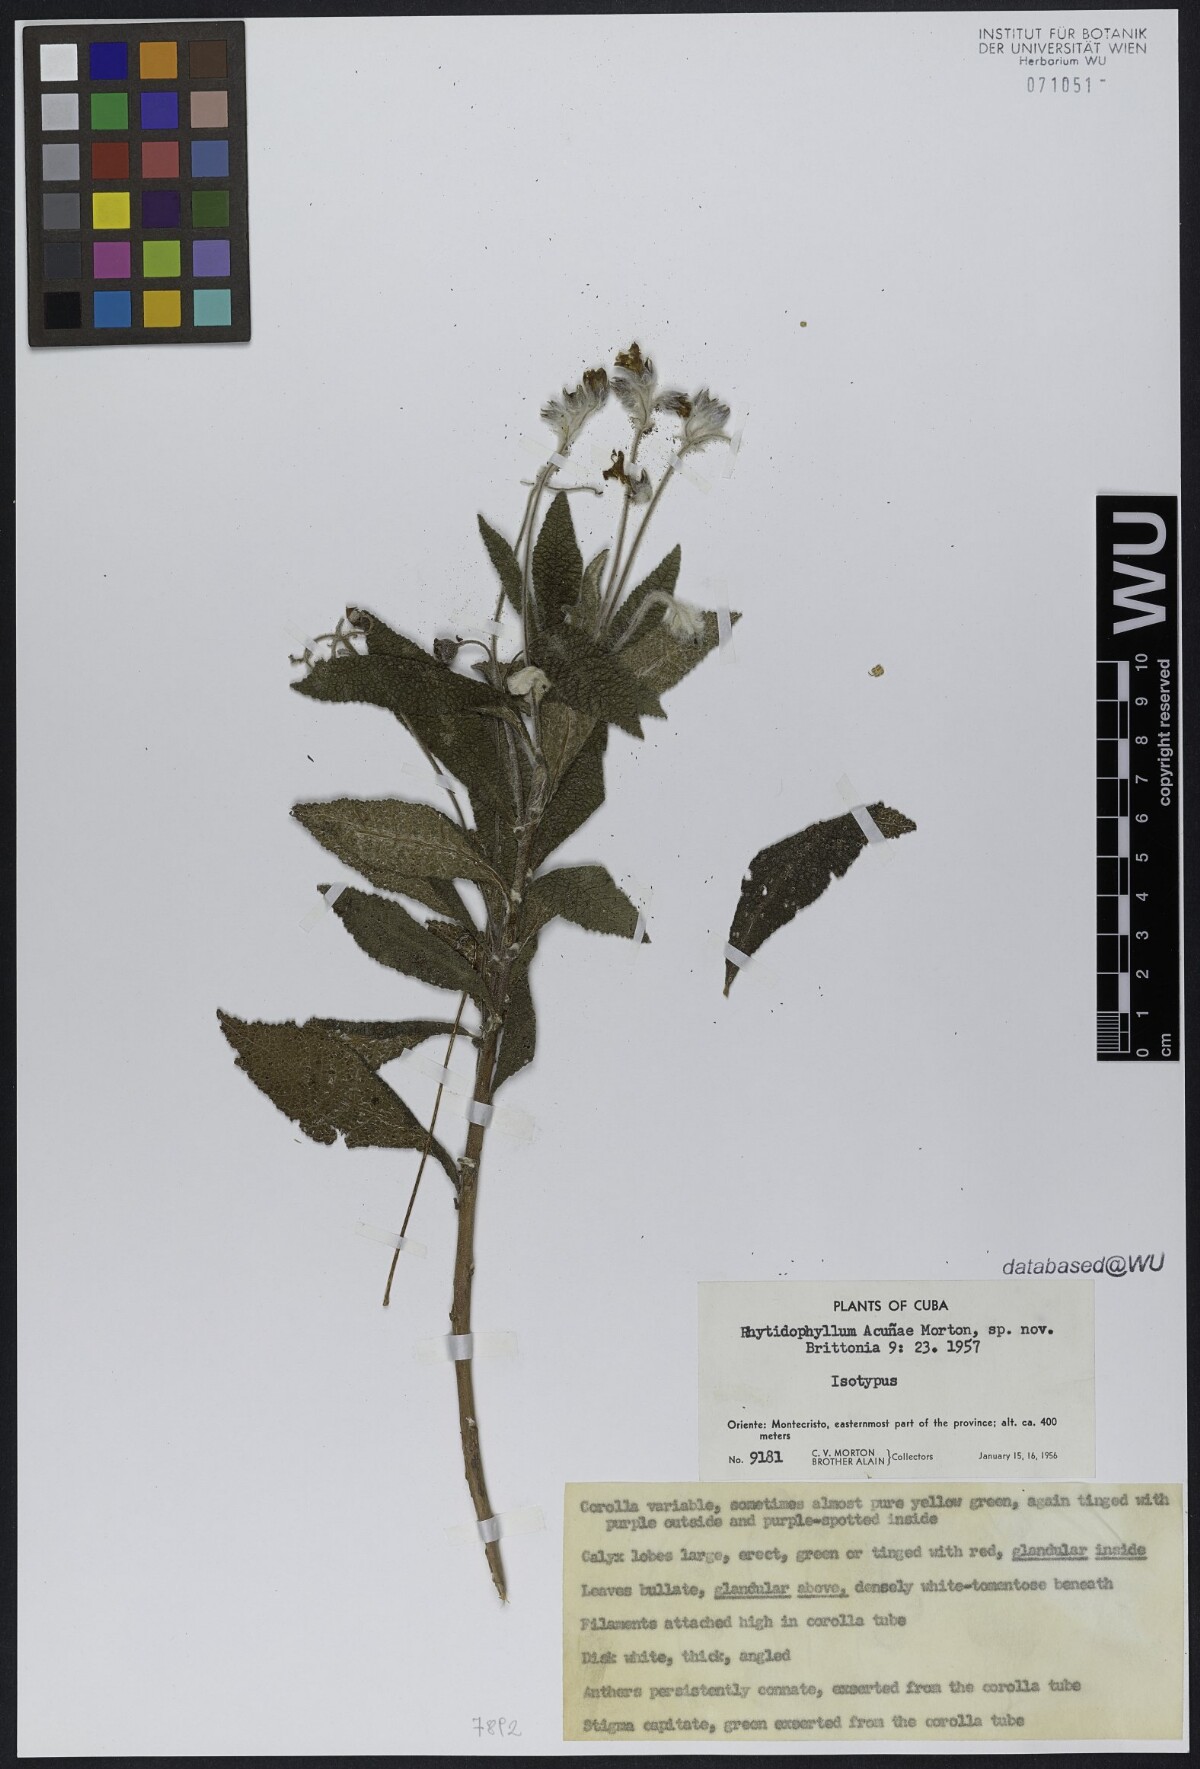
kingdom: Plantae
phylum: Tracheophyta
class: Magnoliopsida
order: Lamiales
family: Gesneriaceae
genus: Rhytidophyllum
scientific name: Rhytidophyllum acunae
